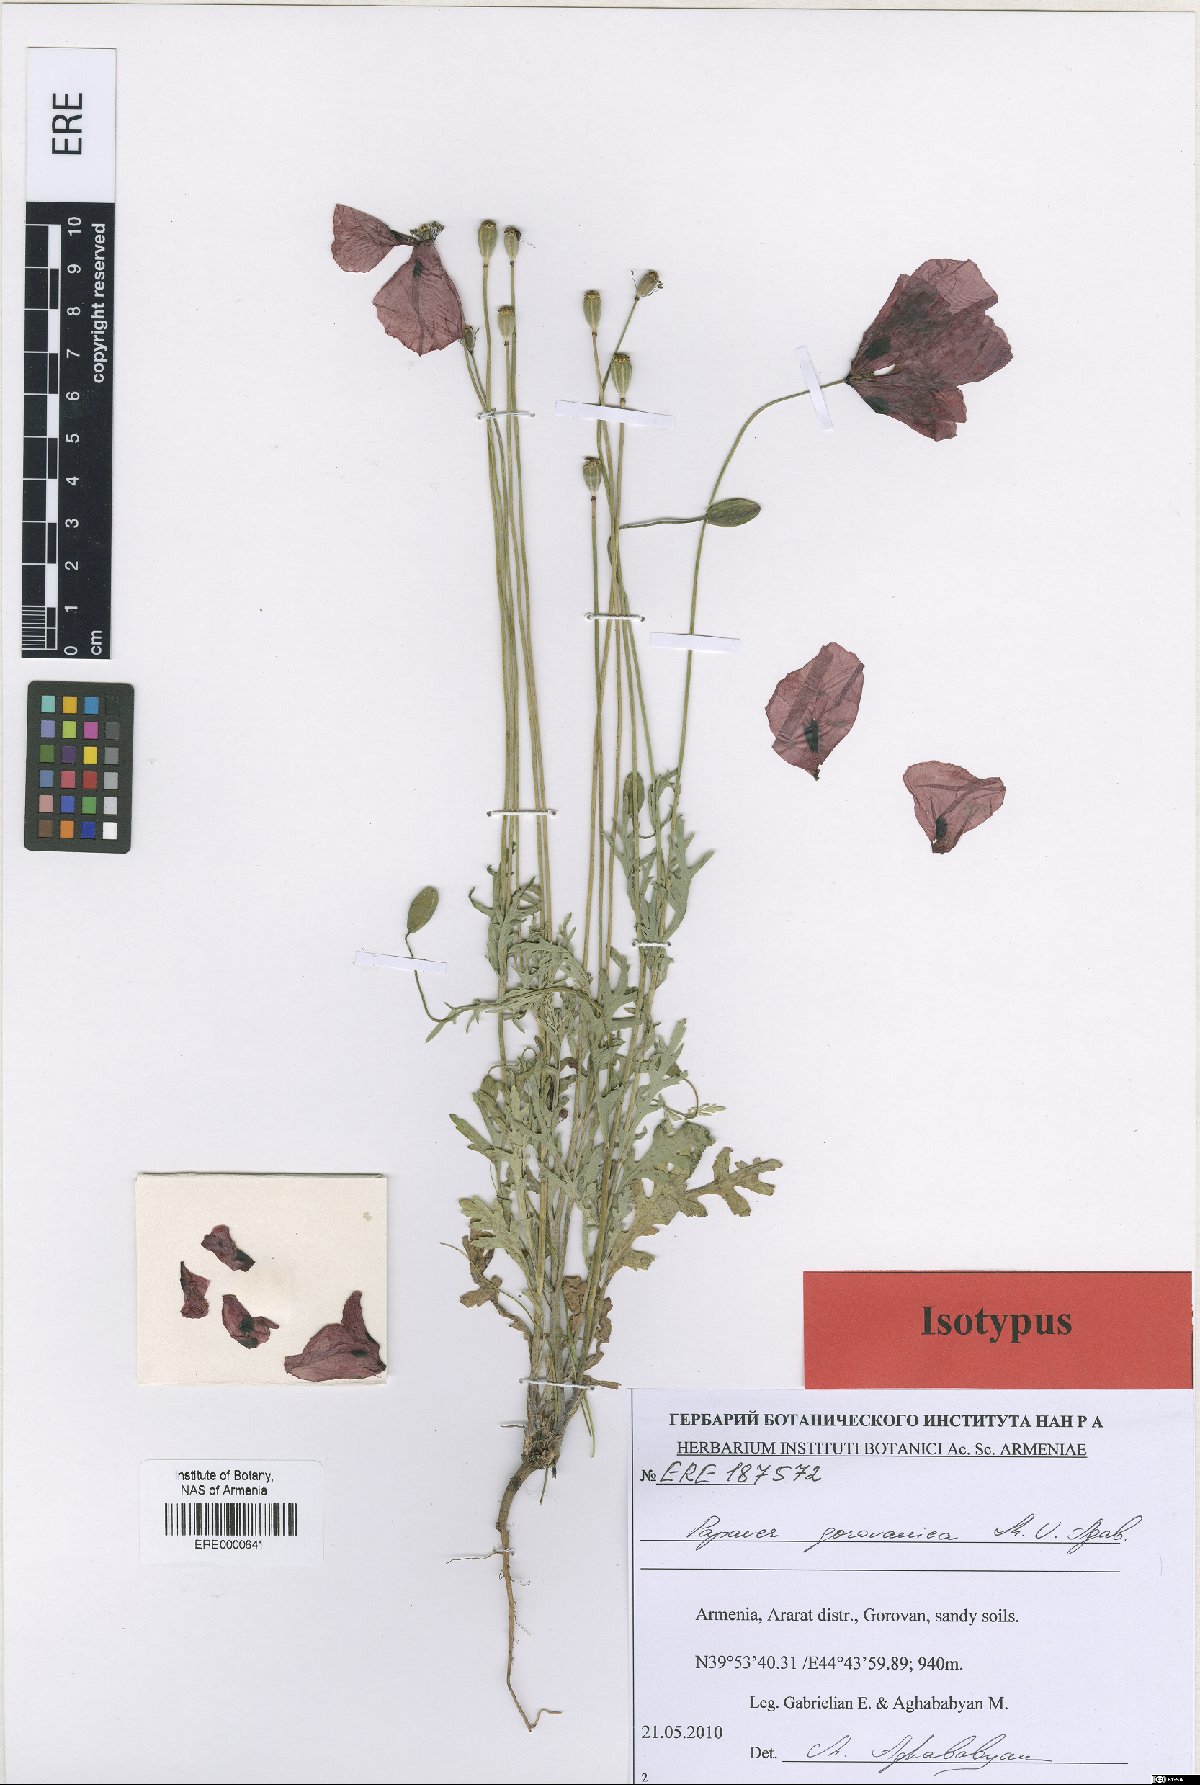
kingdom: Plantae
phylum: Tracheophyta
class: Magnoliopsida
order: Ranunculales
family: Papaveraceae
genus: Papaver
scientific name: Papaver gorovanicum
